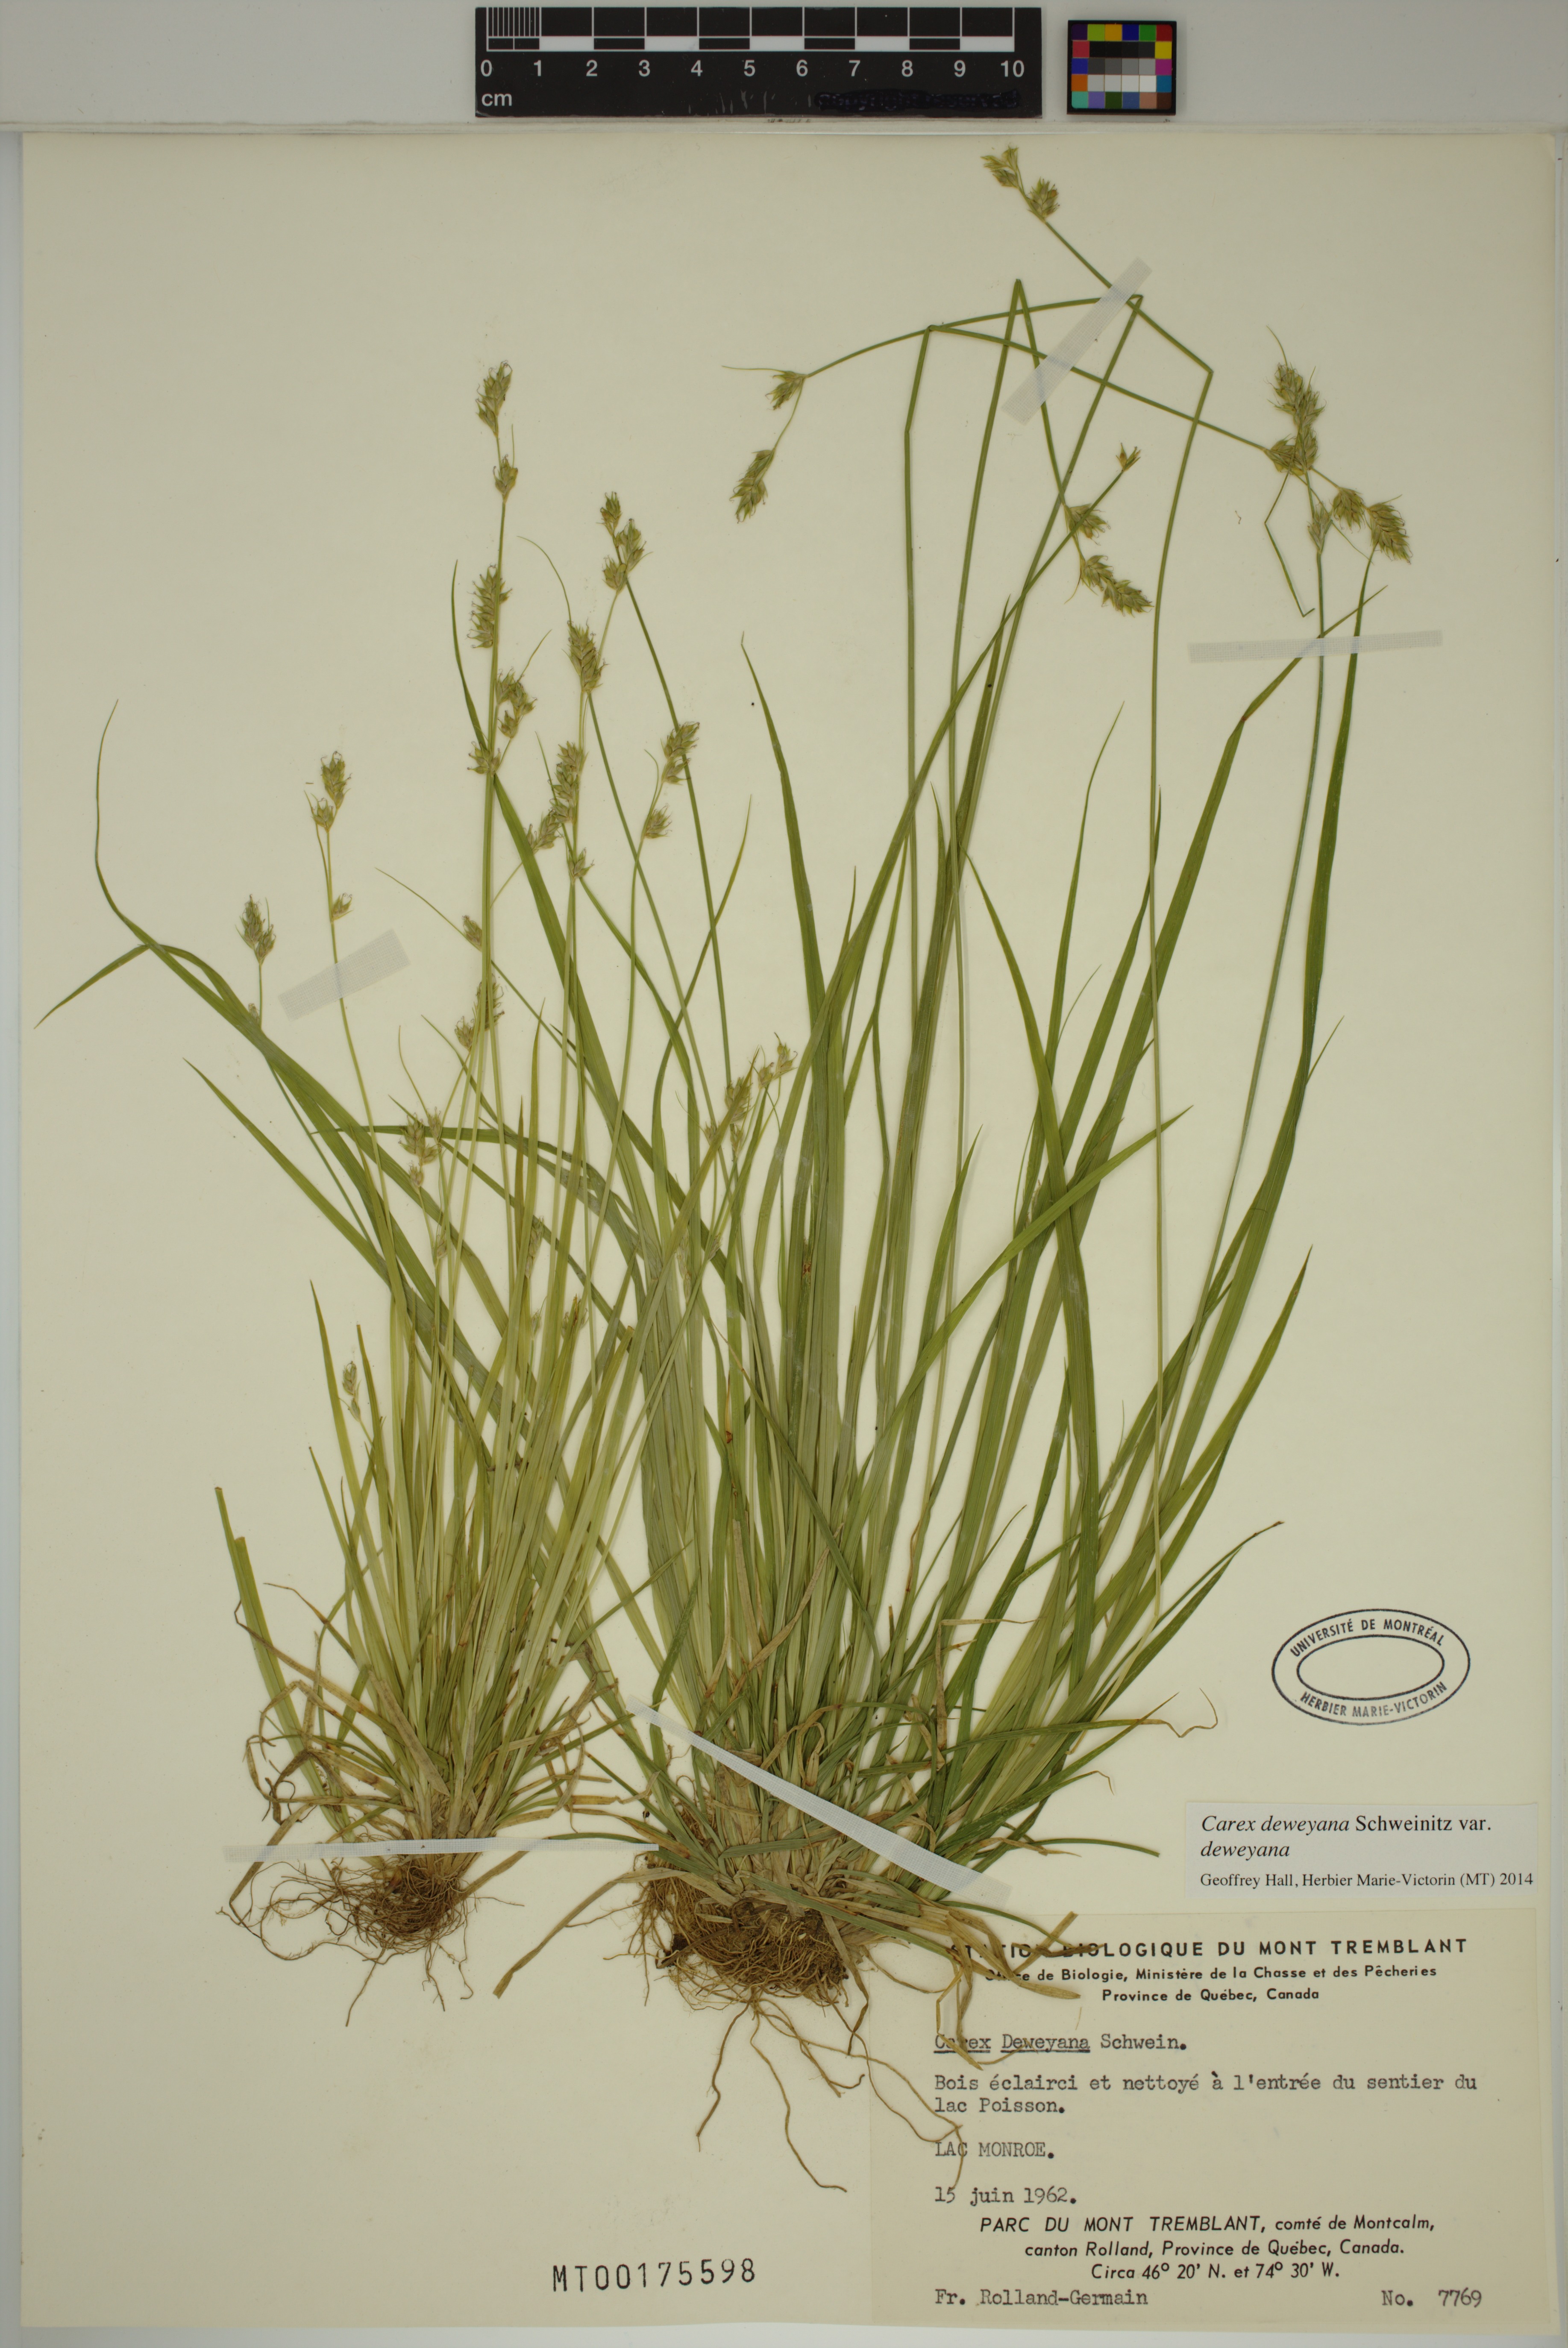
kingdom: Plantae
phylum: Tracheophyta
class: Liliopsida
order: Poales
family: Cyperaceae
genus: Carex
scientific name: Carex deweyana
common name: Dewey's sedge
